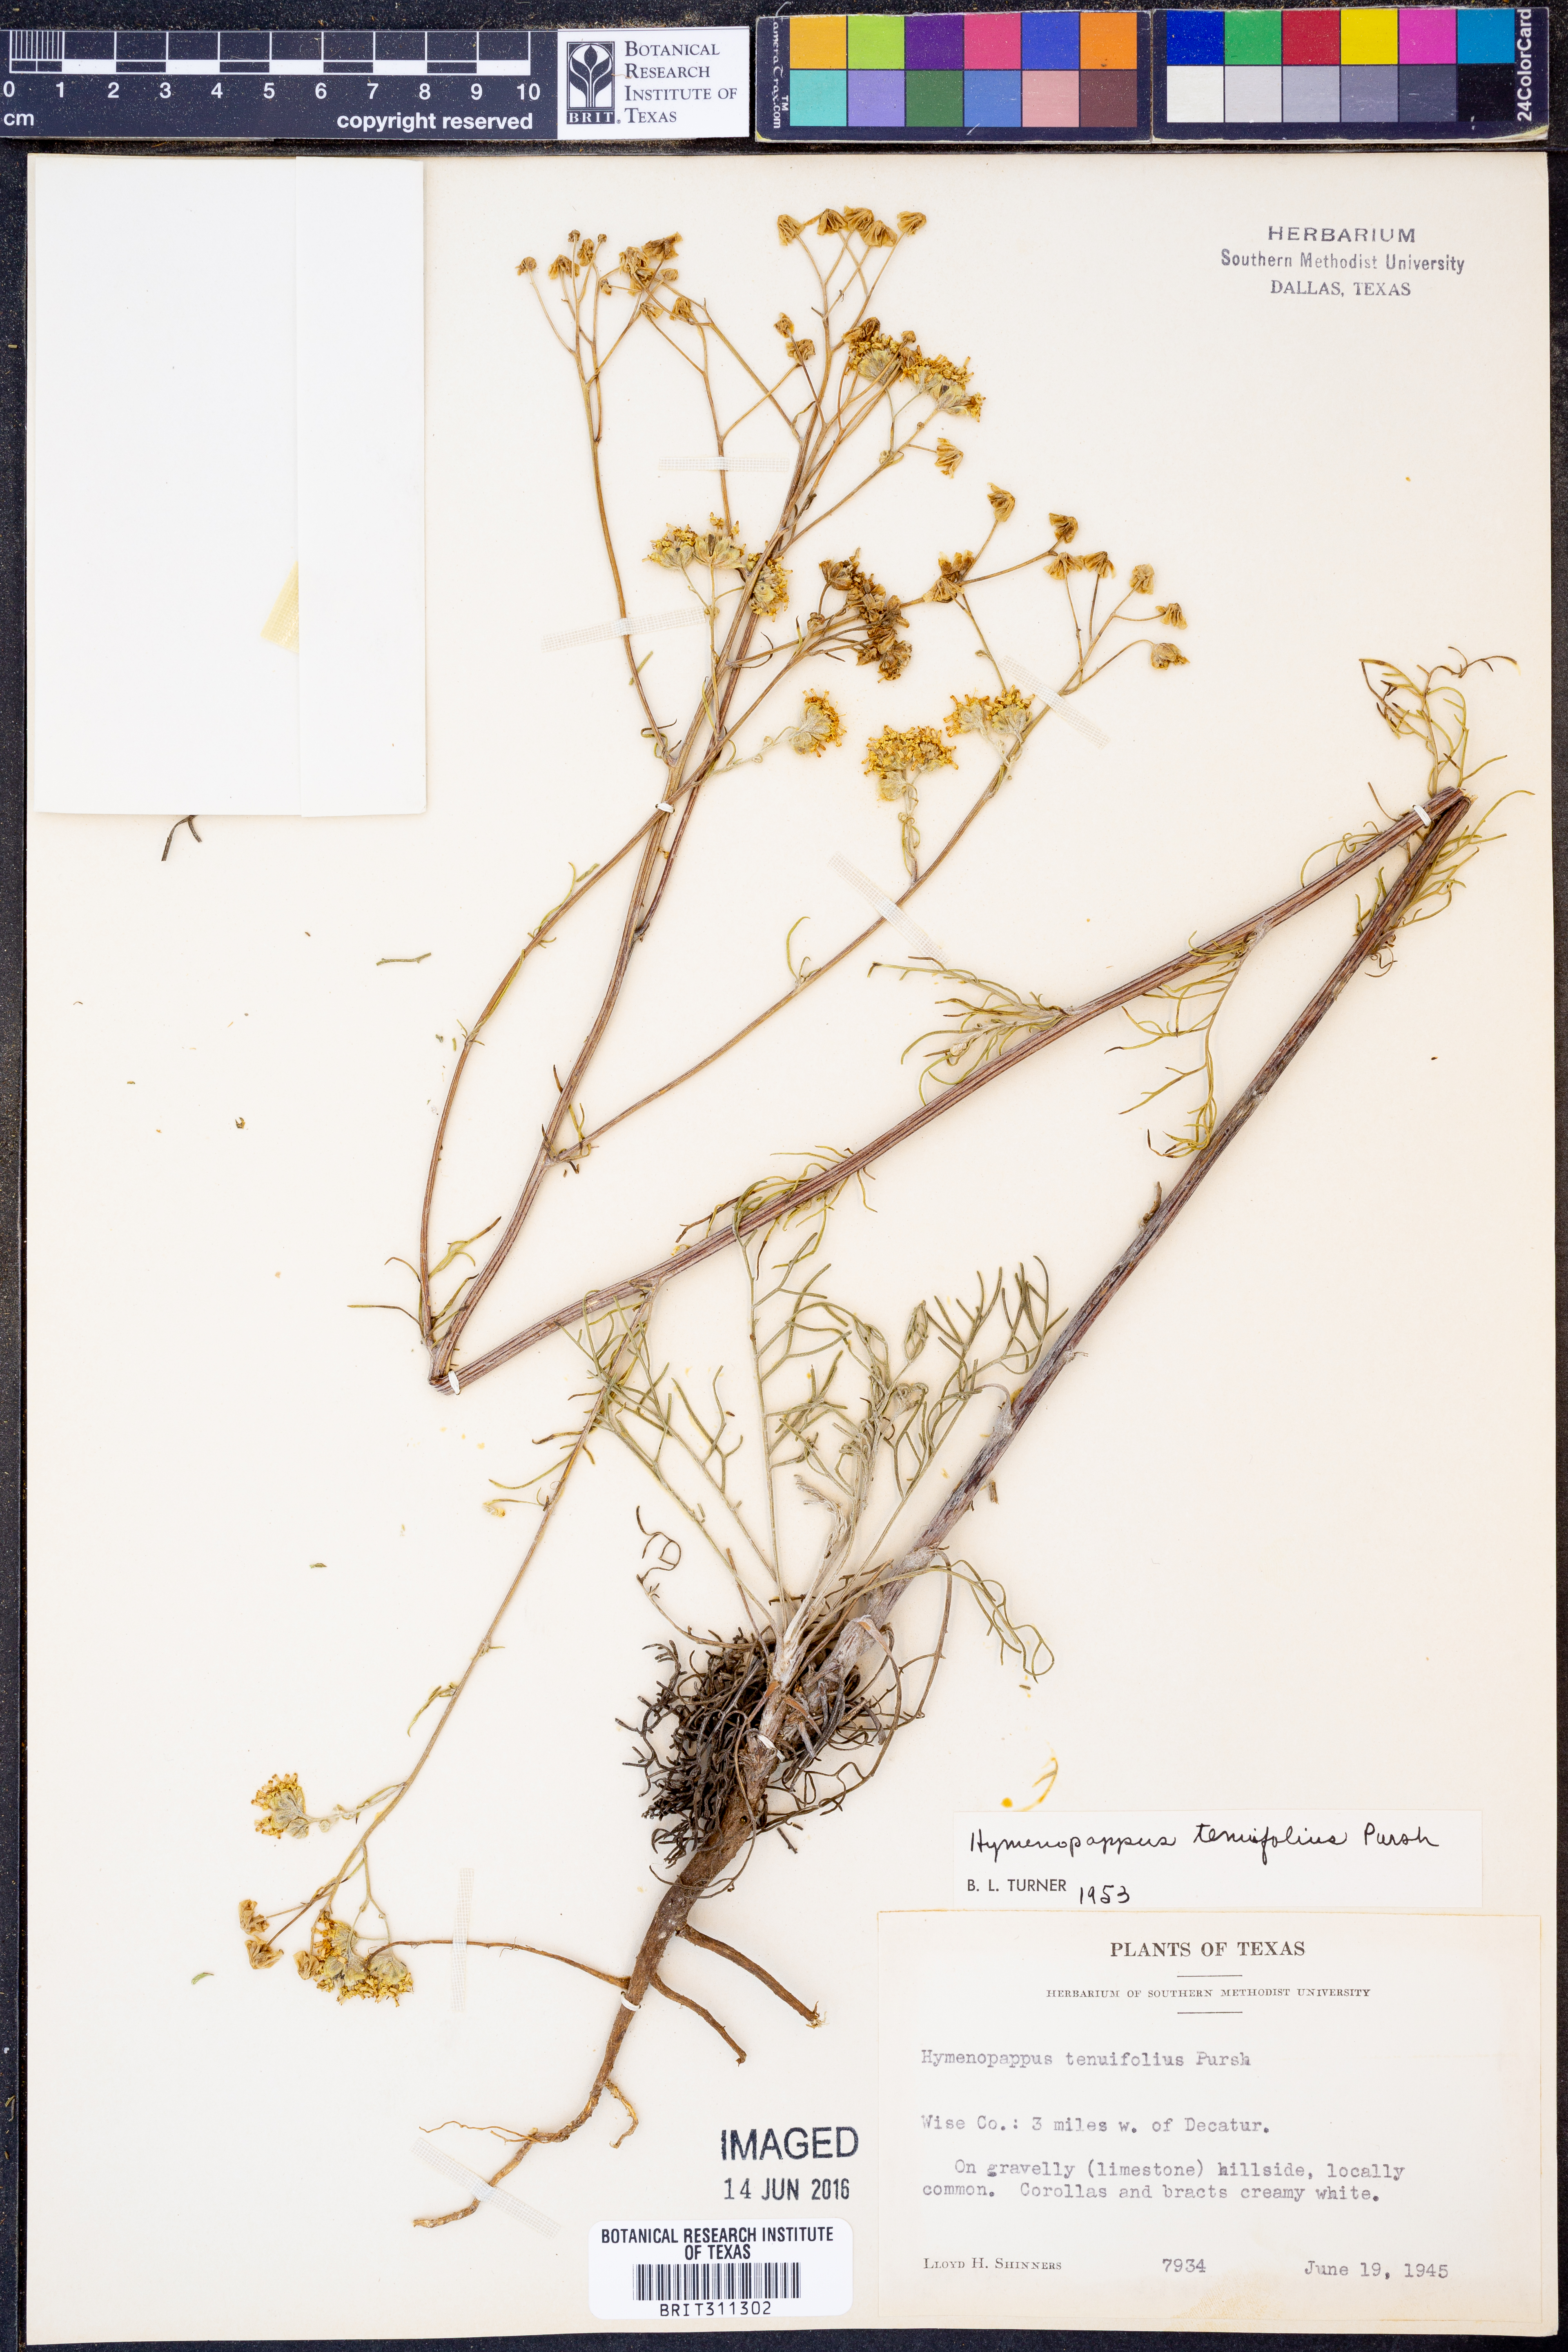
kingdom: Plantae
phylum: Tracheophyta
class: Magnoliopsida
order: Asterales
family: Asteraceae
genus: Hymenopappus
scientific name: Hymenopappus tenuifolius
